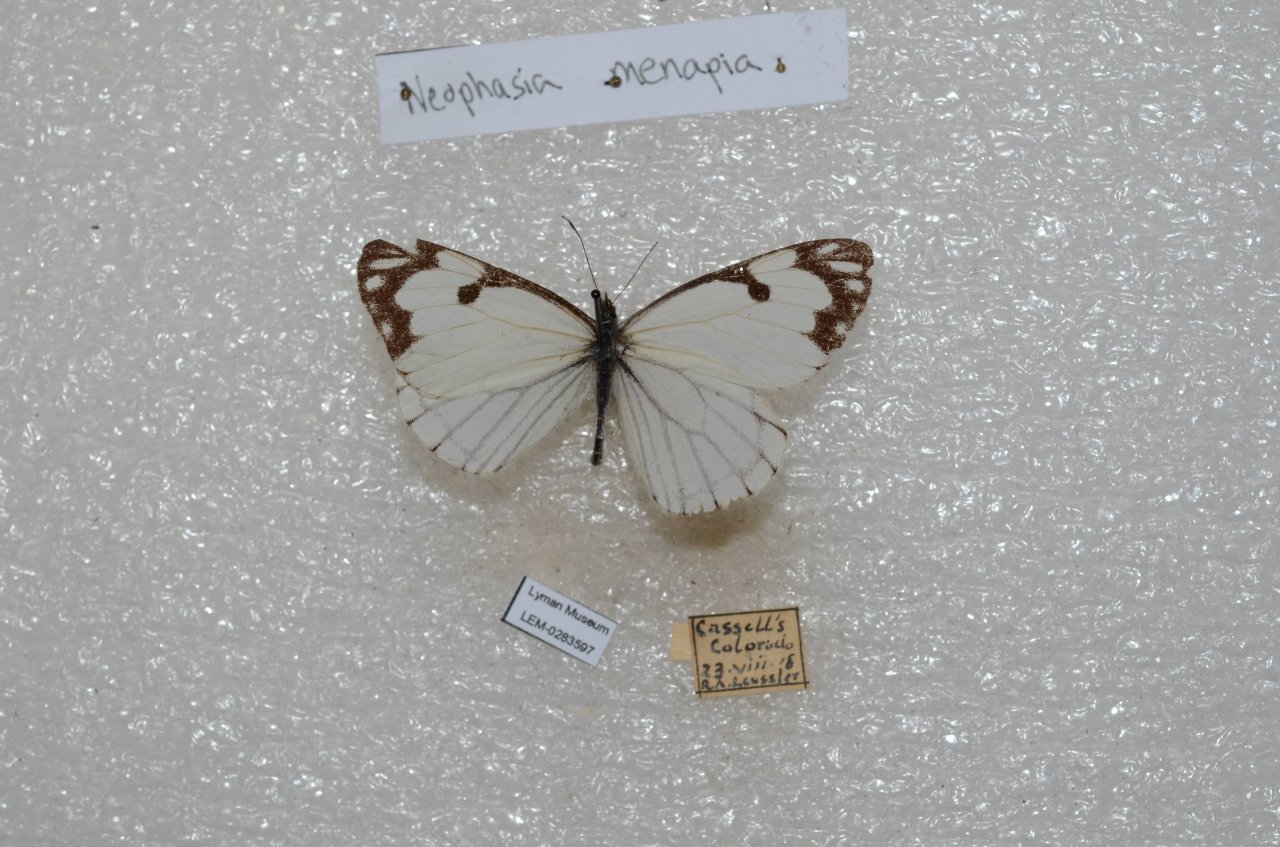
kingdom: Animalia
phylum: Arthropoda
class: Insecta
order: Lepidoptera
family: Pieridae
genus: Neophasia
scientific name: Neophasia menapia
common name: Pine White
